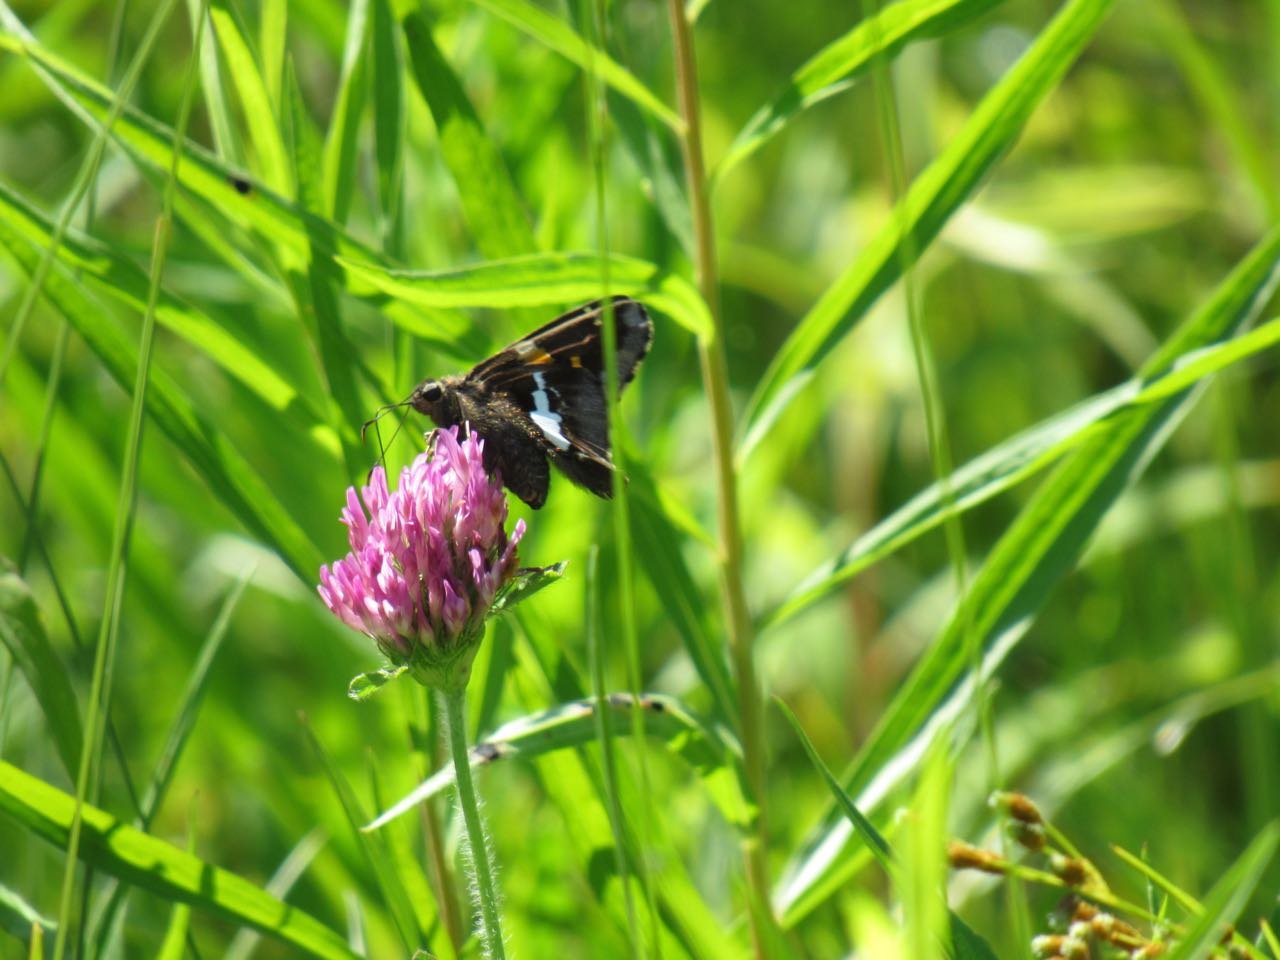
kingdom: Animalia
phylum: Arthropoda
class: Insecta
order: Lepidoptera
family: Hesperiidae
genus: Epargyreus
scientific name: Epargyreus clarus
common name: Silver-spotted Skipper
